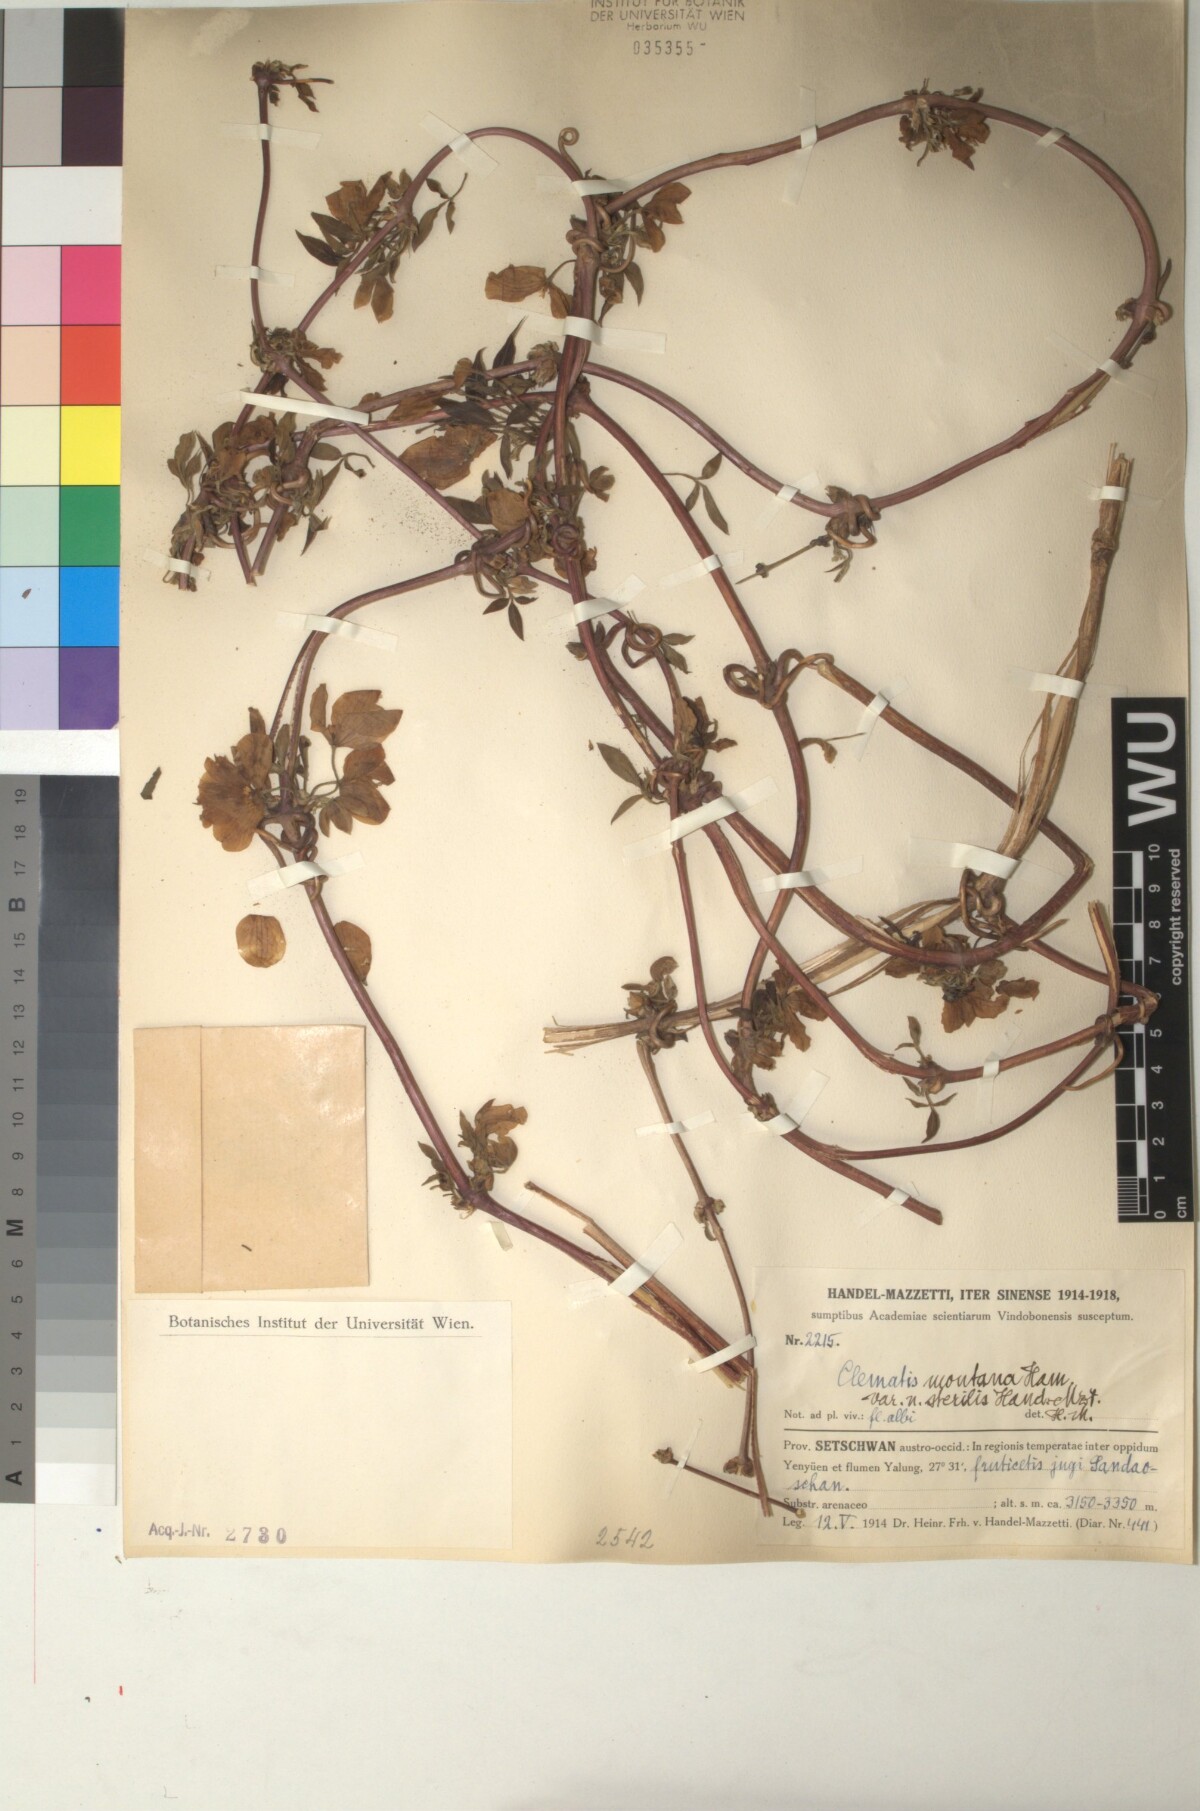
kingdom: Plantae
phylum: Tracheophyta
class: Magnoliopsida
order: Ranunculales
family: Ranunculaceae
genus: Clematis
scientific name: Clematis montana
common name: Himalayan clematis
